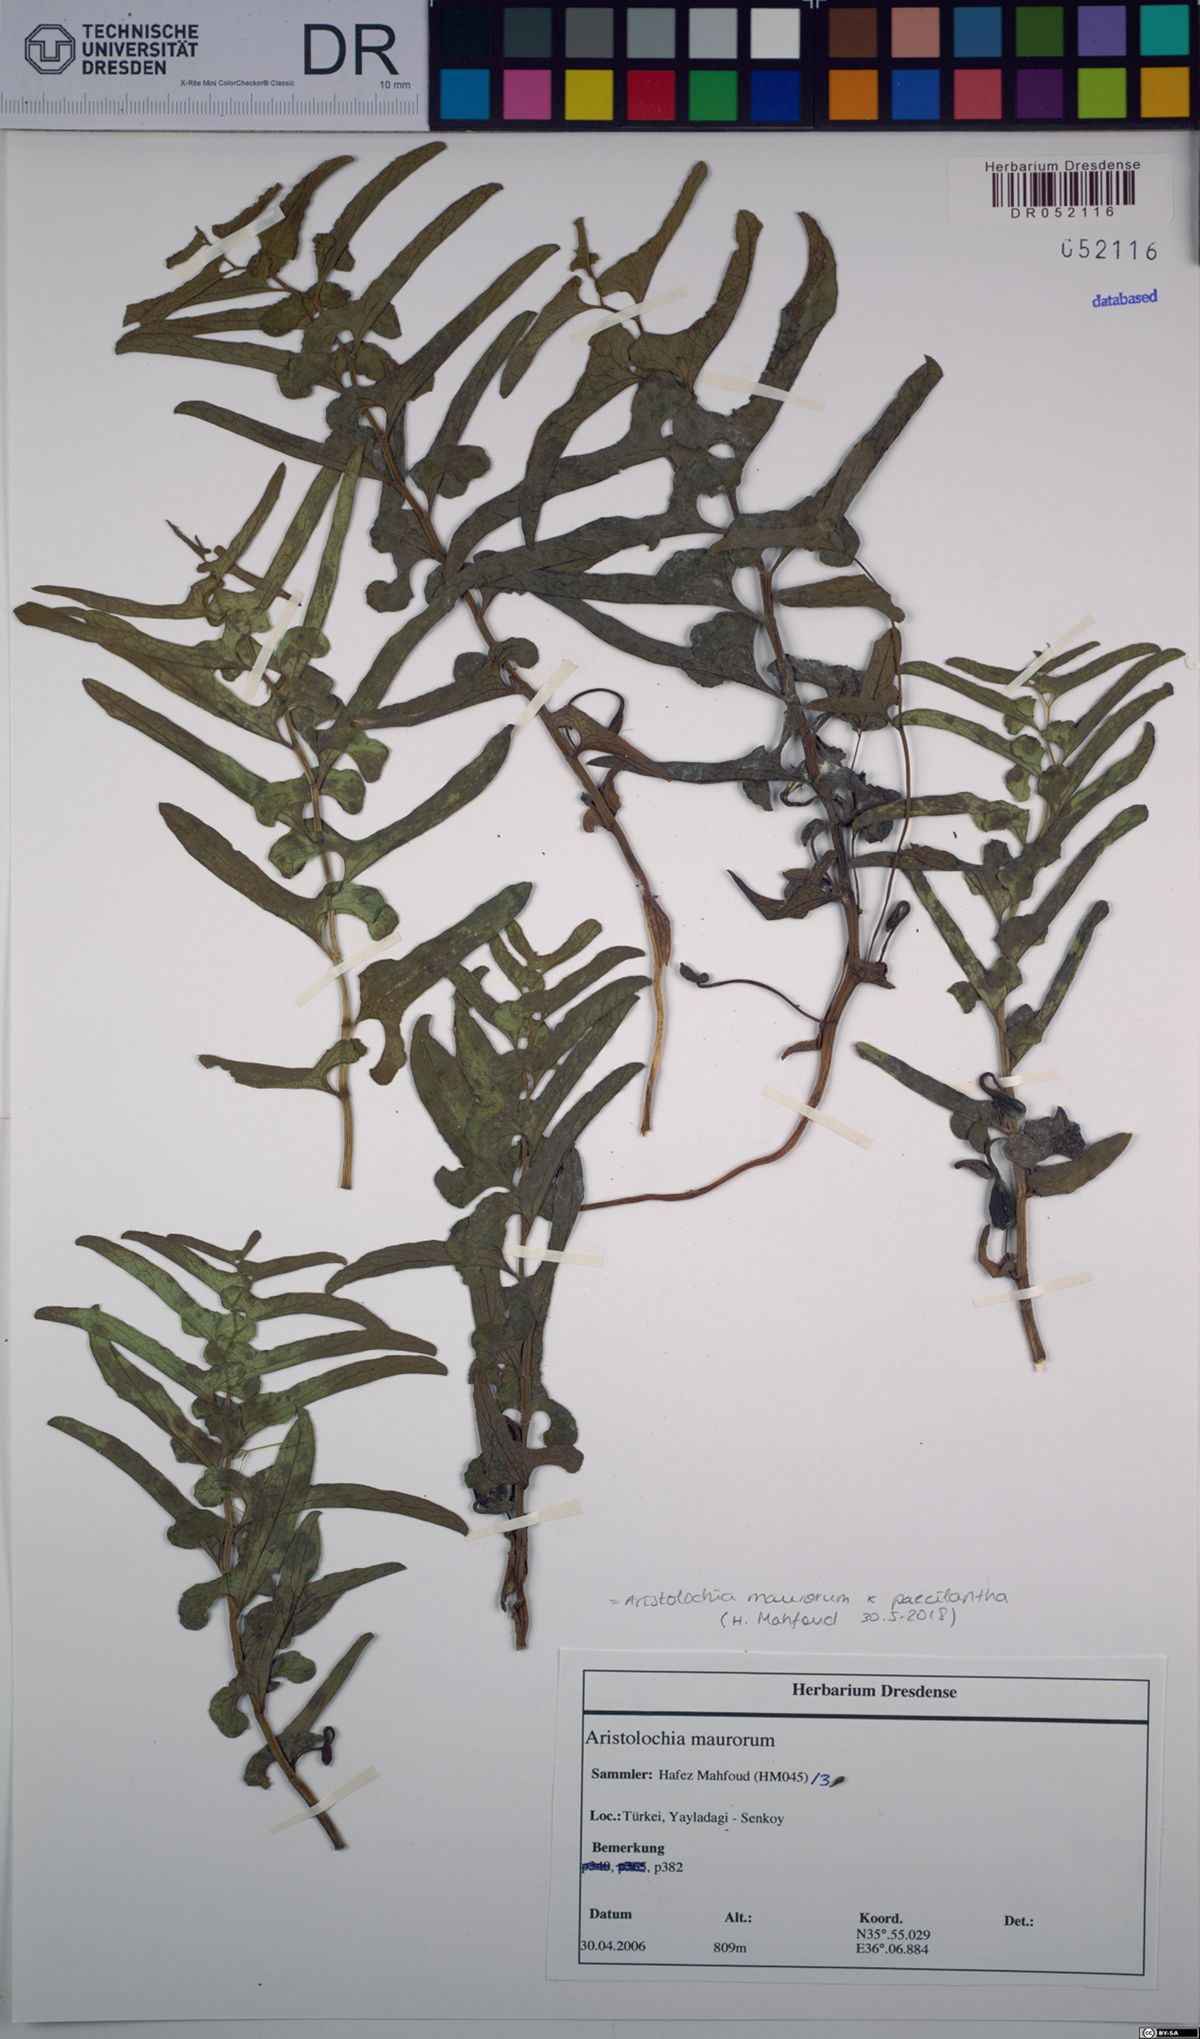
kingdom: Plantae
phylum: Tracheophyta
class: Magnoliopsida
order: Piperales
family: Aristolochiaceae
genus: Aristolochia
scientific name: Aristolochia maurorum
